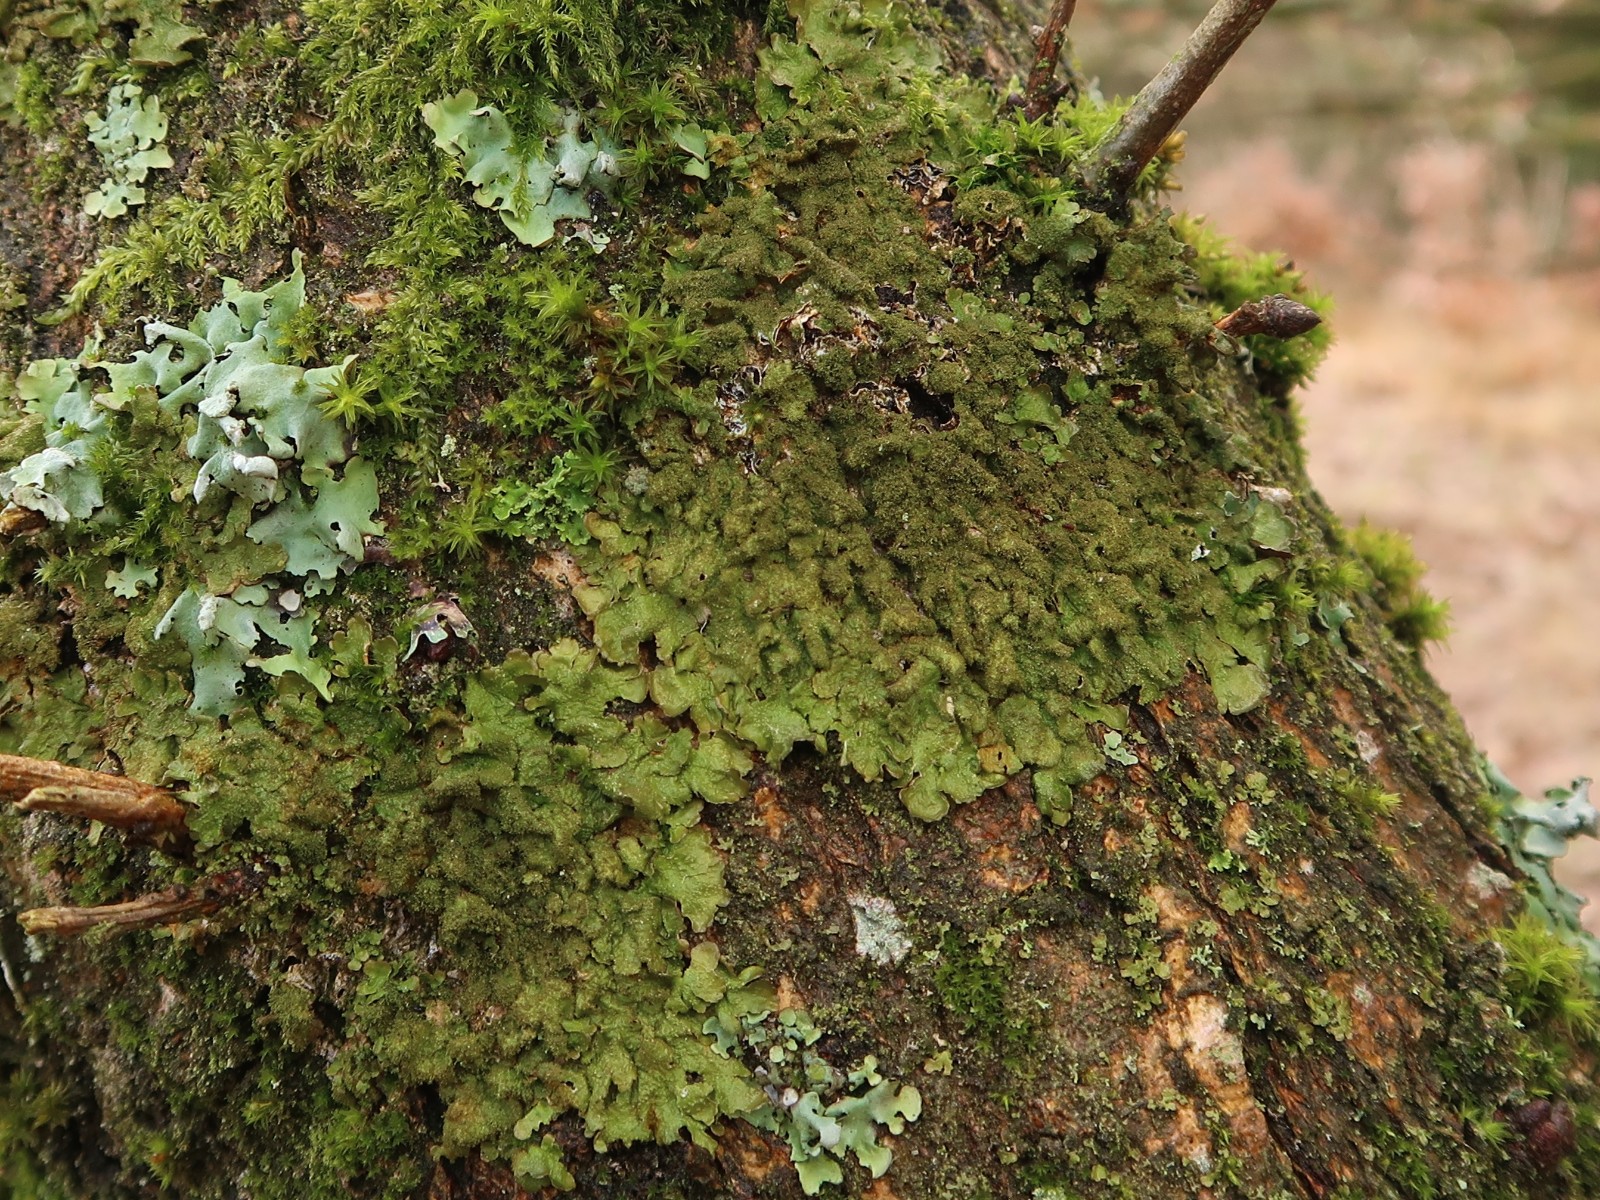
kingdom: Fungi
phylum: Ascomycota
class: Lecanoromycetes
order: Lecanorales
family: Parmeliaceae
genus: Melanelixia
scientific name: Melanelixia glabratula
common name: glinsende skållav
